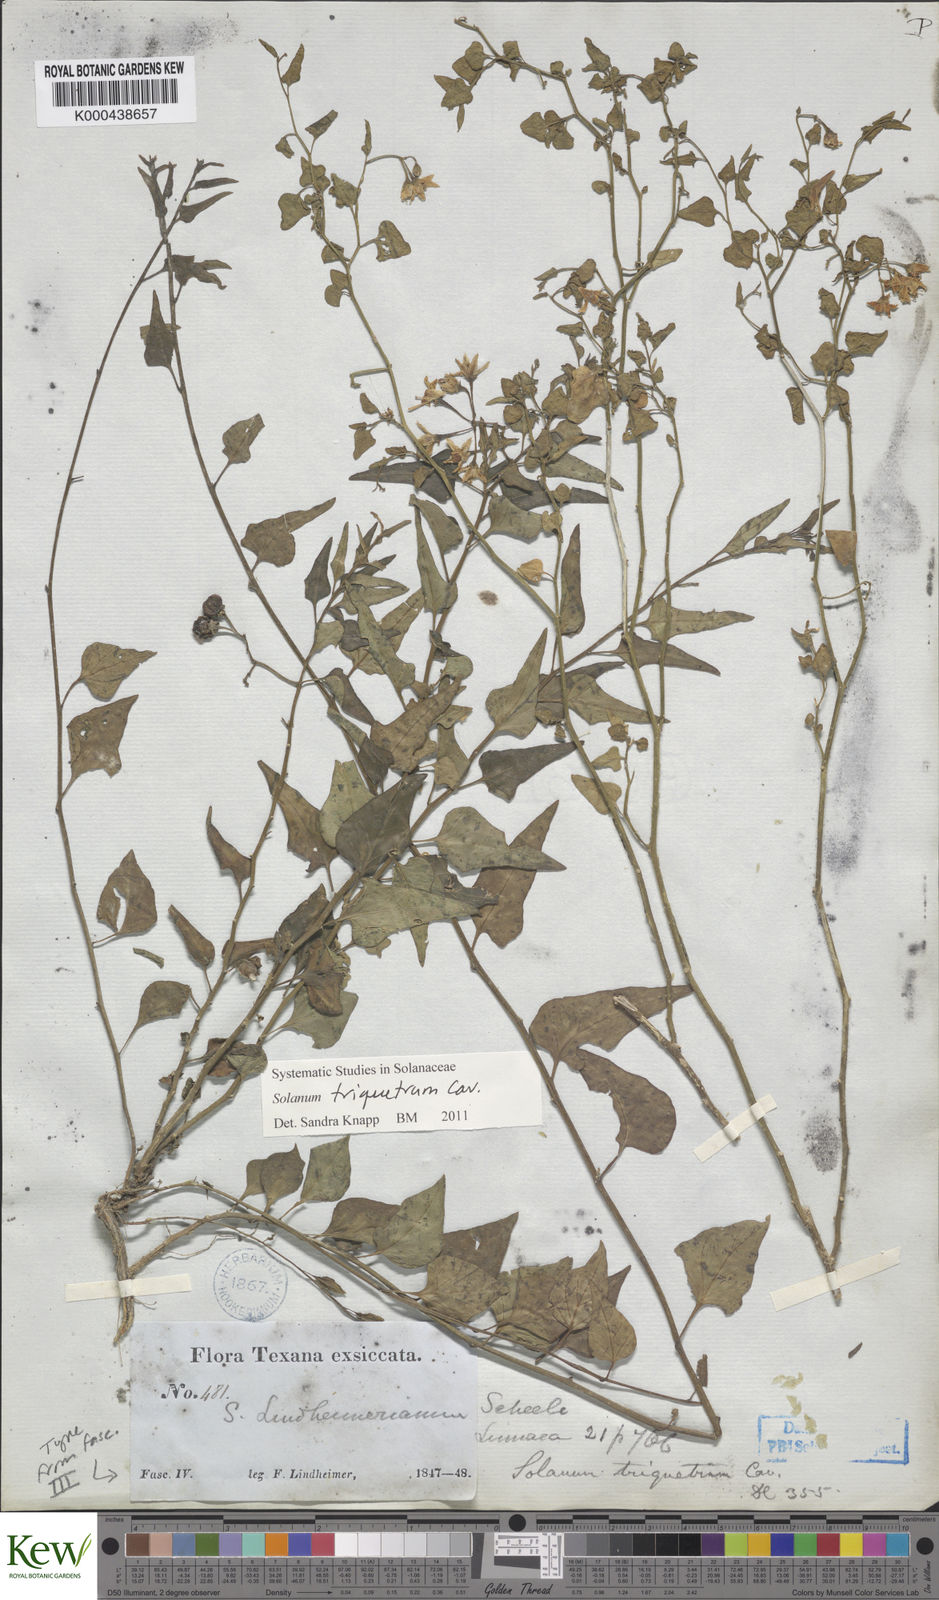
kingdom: Plantae
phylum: Tracheophyta
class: Magnoliopsida
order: Solanales
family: Solanaceae
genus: Solanum
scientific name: Solanum triquetrum
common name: Texas nightshade
